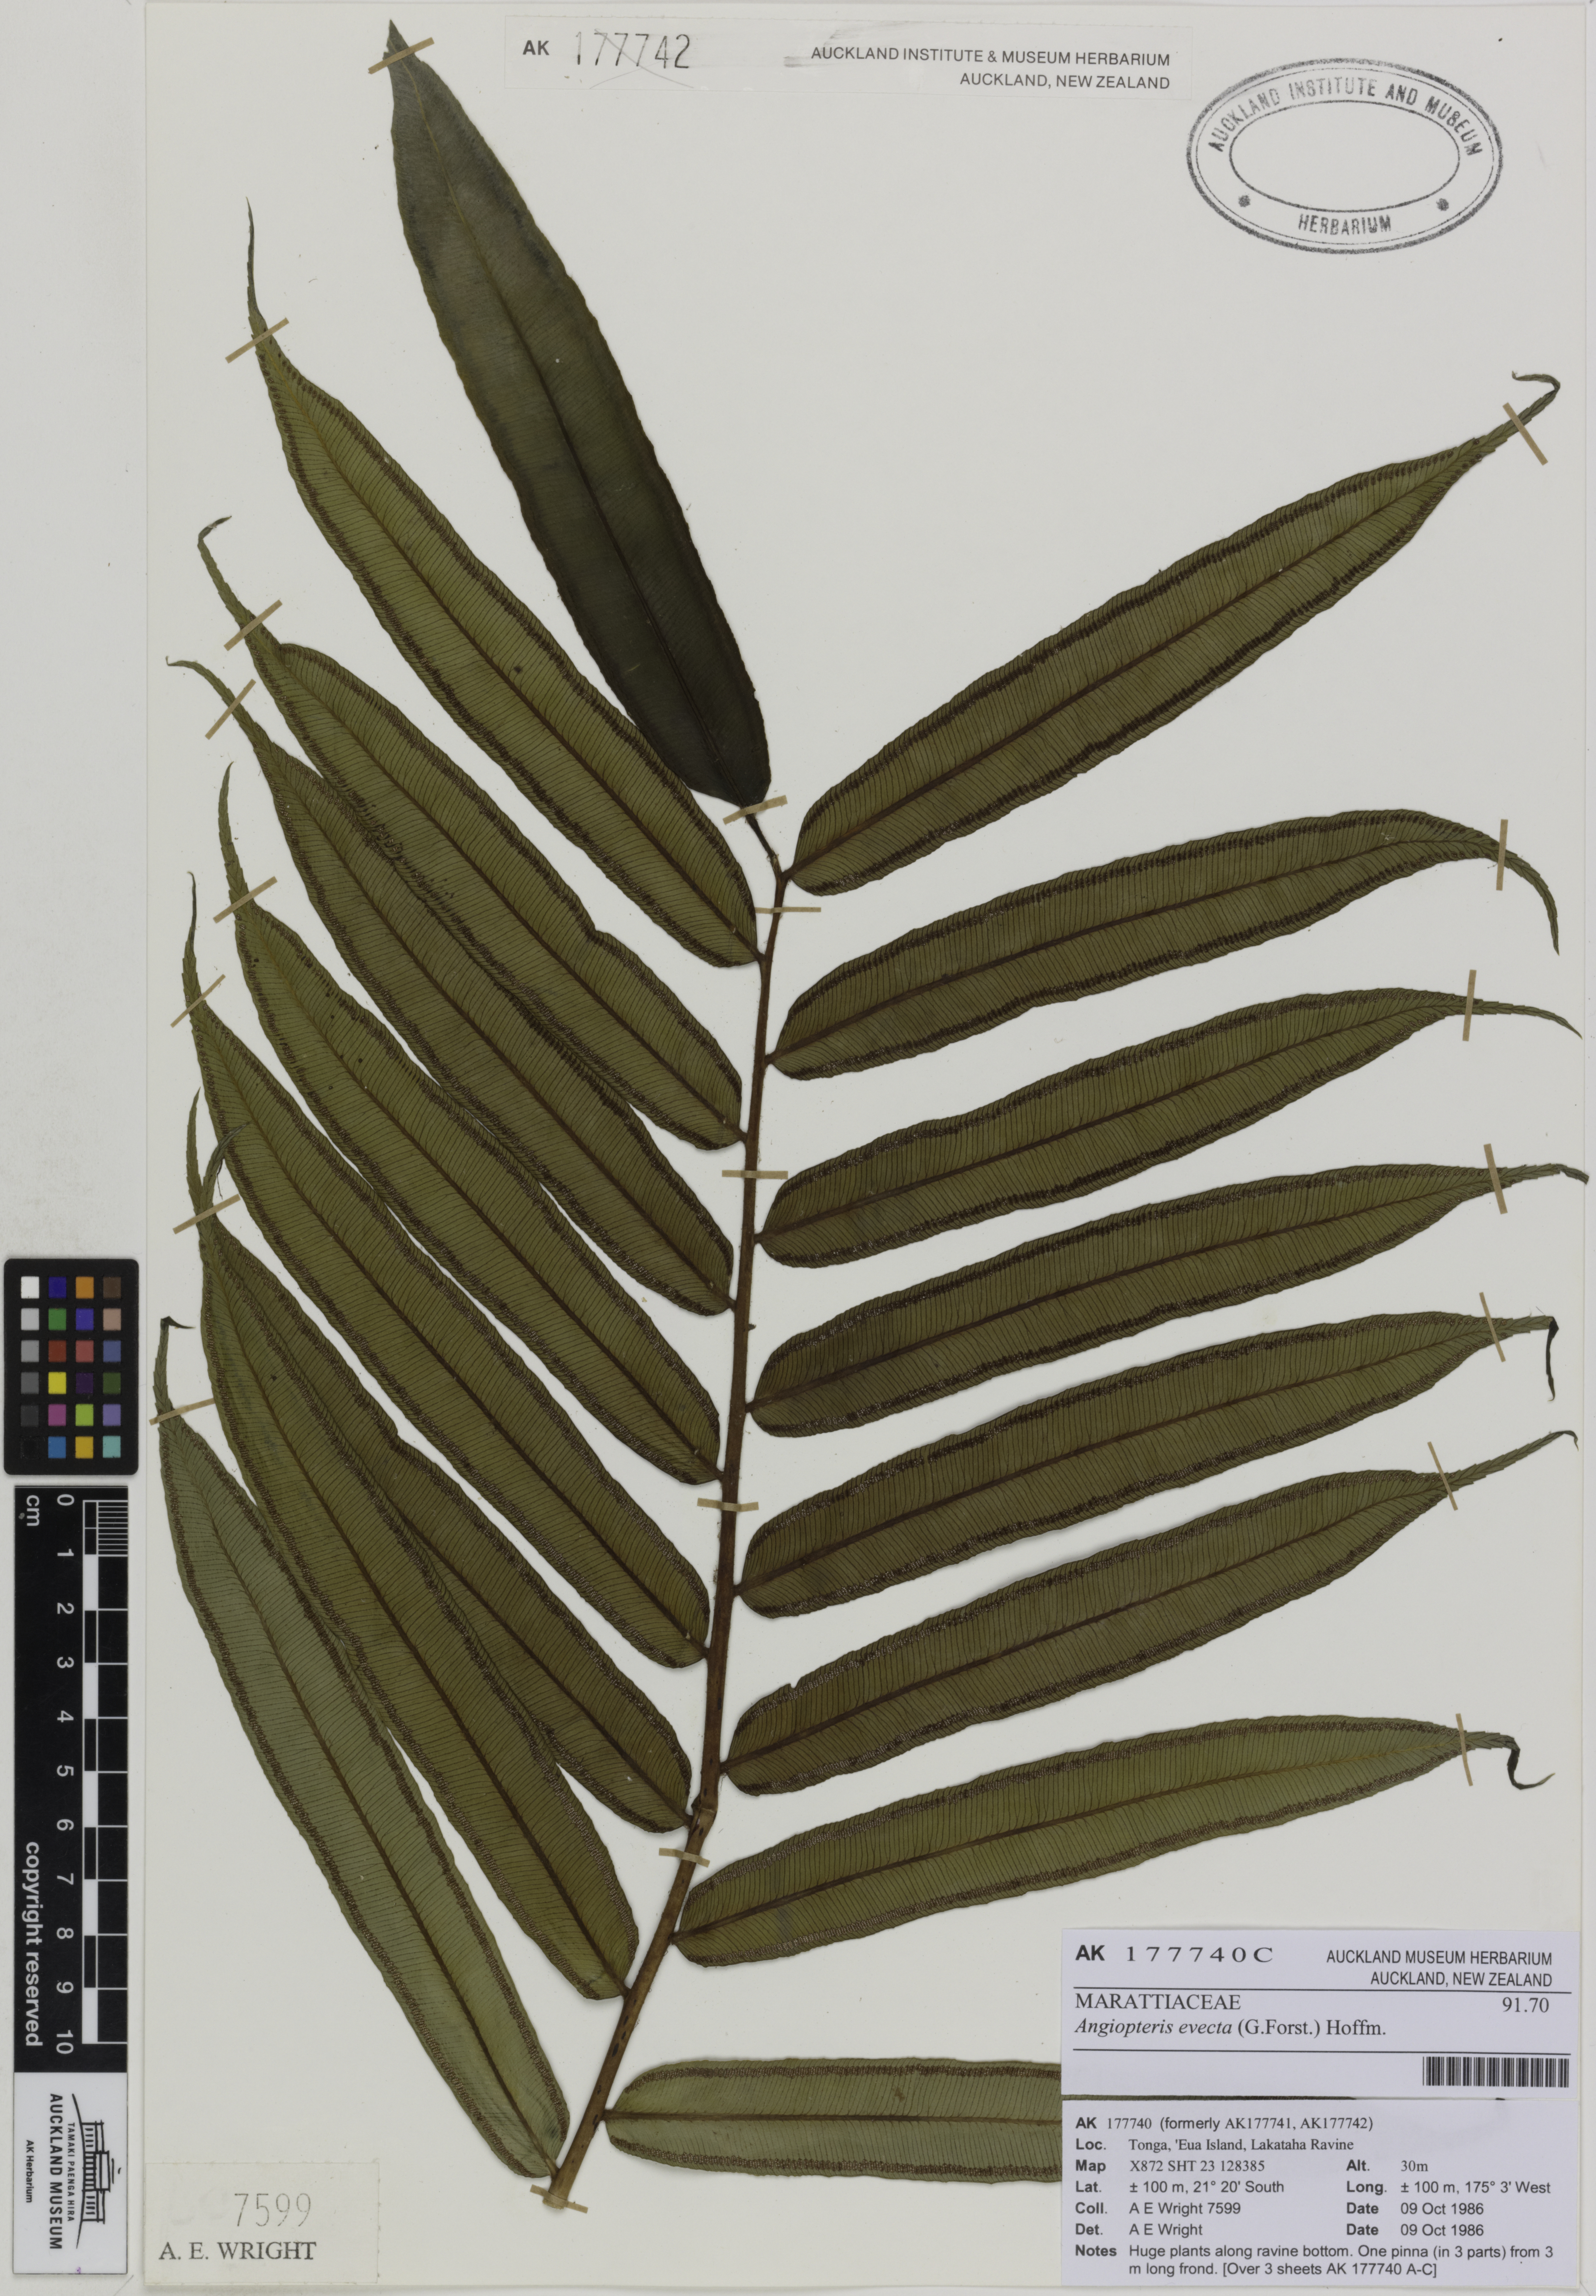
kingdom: Plantae
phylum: Tracheophyta
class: Polypodiopsida
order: Marattiales
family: Marattiaceae
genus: Angiopteris
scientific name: Angiopteris evecta
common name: Mule's-foot fern
